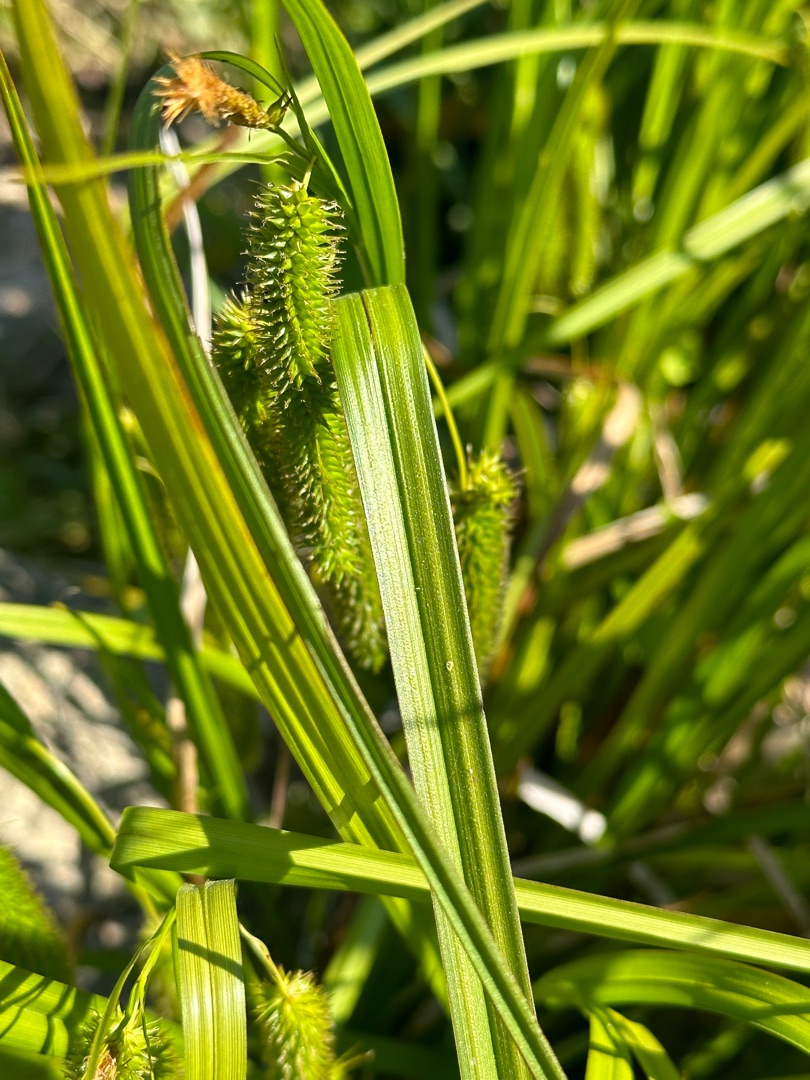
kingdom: Plantae
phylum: Tracheophyta
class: Liliopsida
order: Poales
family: Cyperaceae
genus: Carex
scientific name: Carex pseudocyperus
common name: Knippe-star
